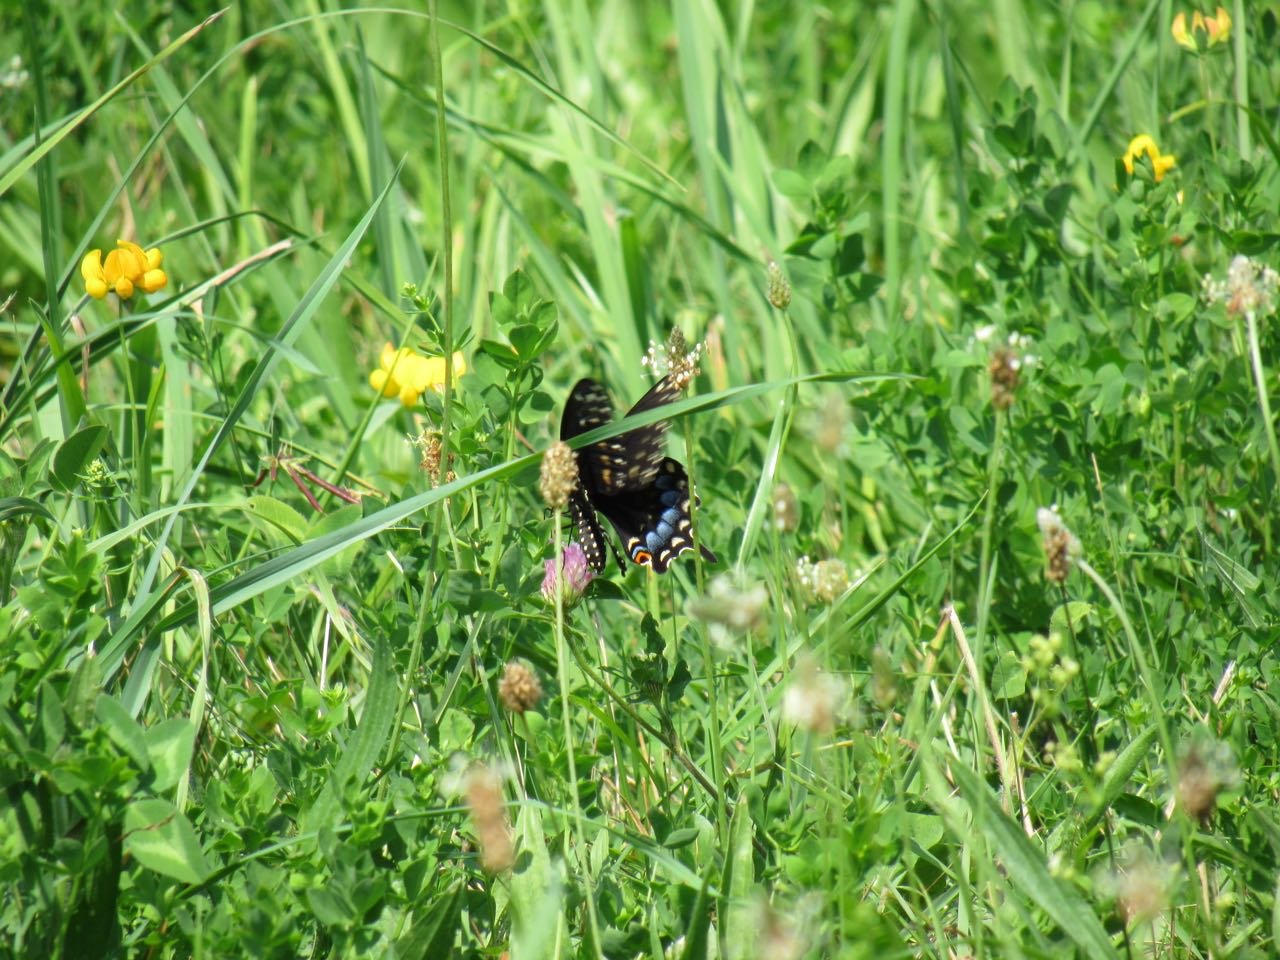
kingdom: Animalia
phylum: Arthropoda
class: Insecta
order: Lepidoptera
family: Papilionidae
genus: Papilio
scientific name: Papilio polyxenes
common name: Black Swallowtail
